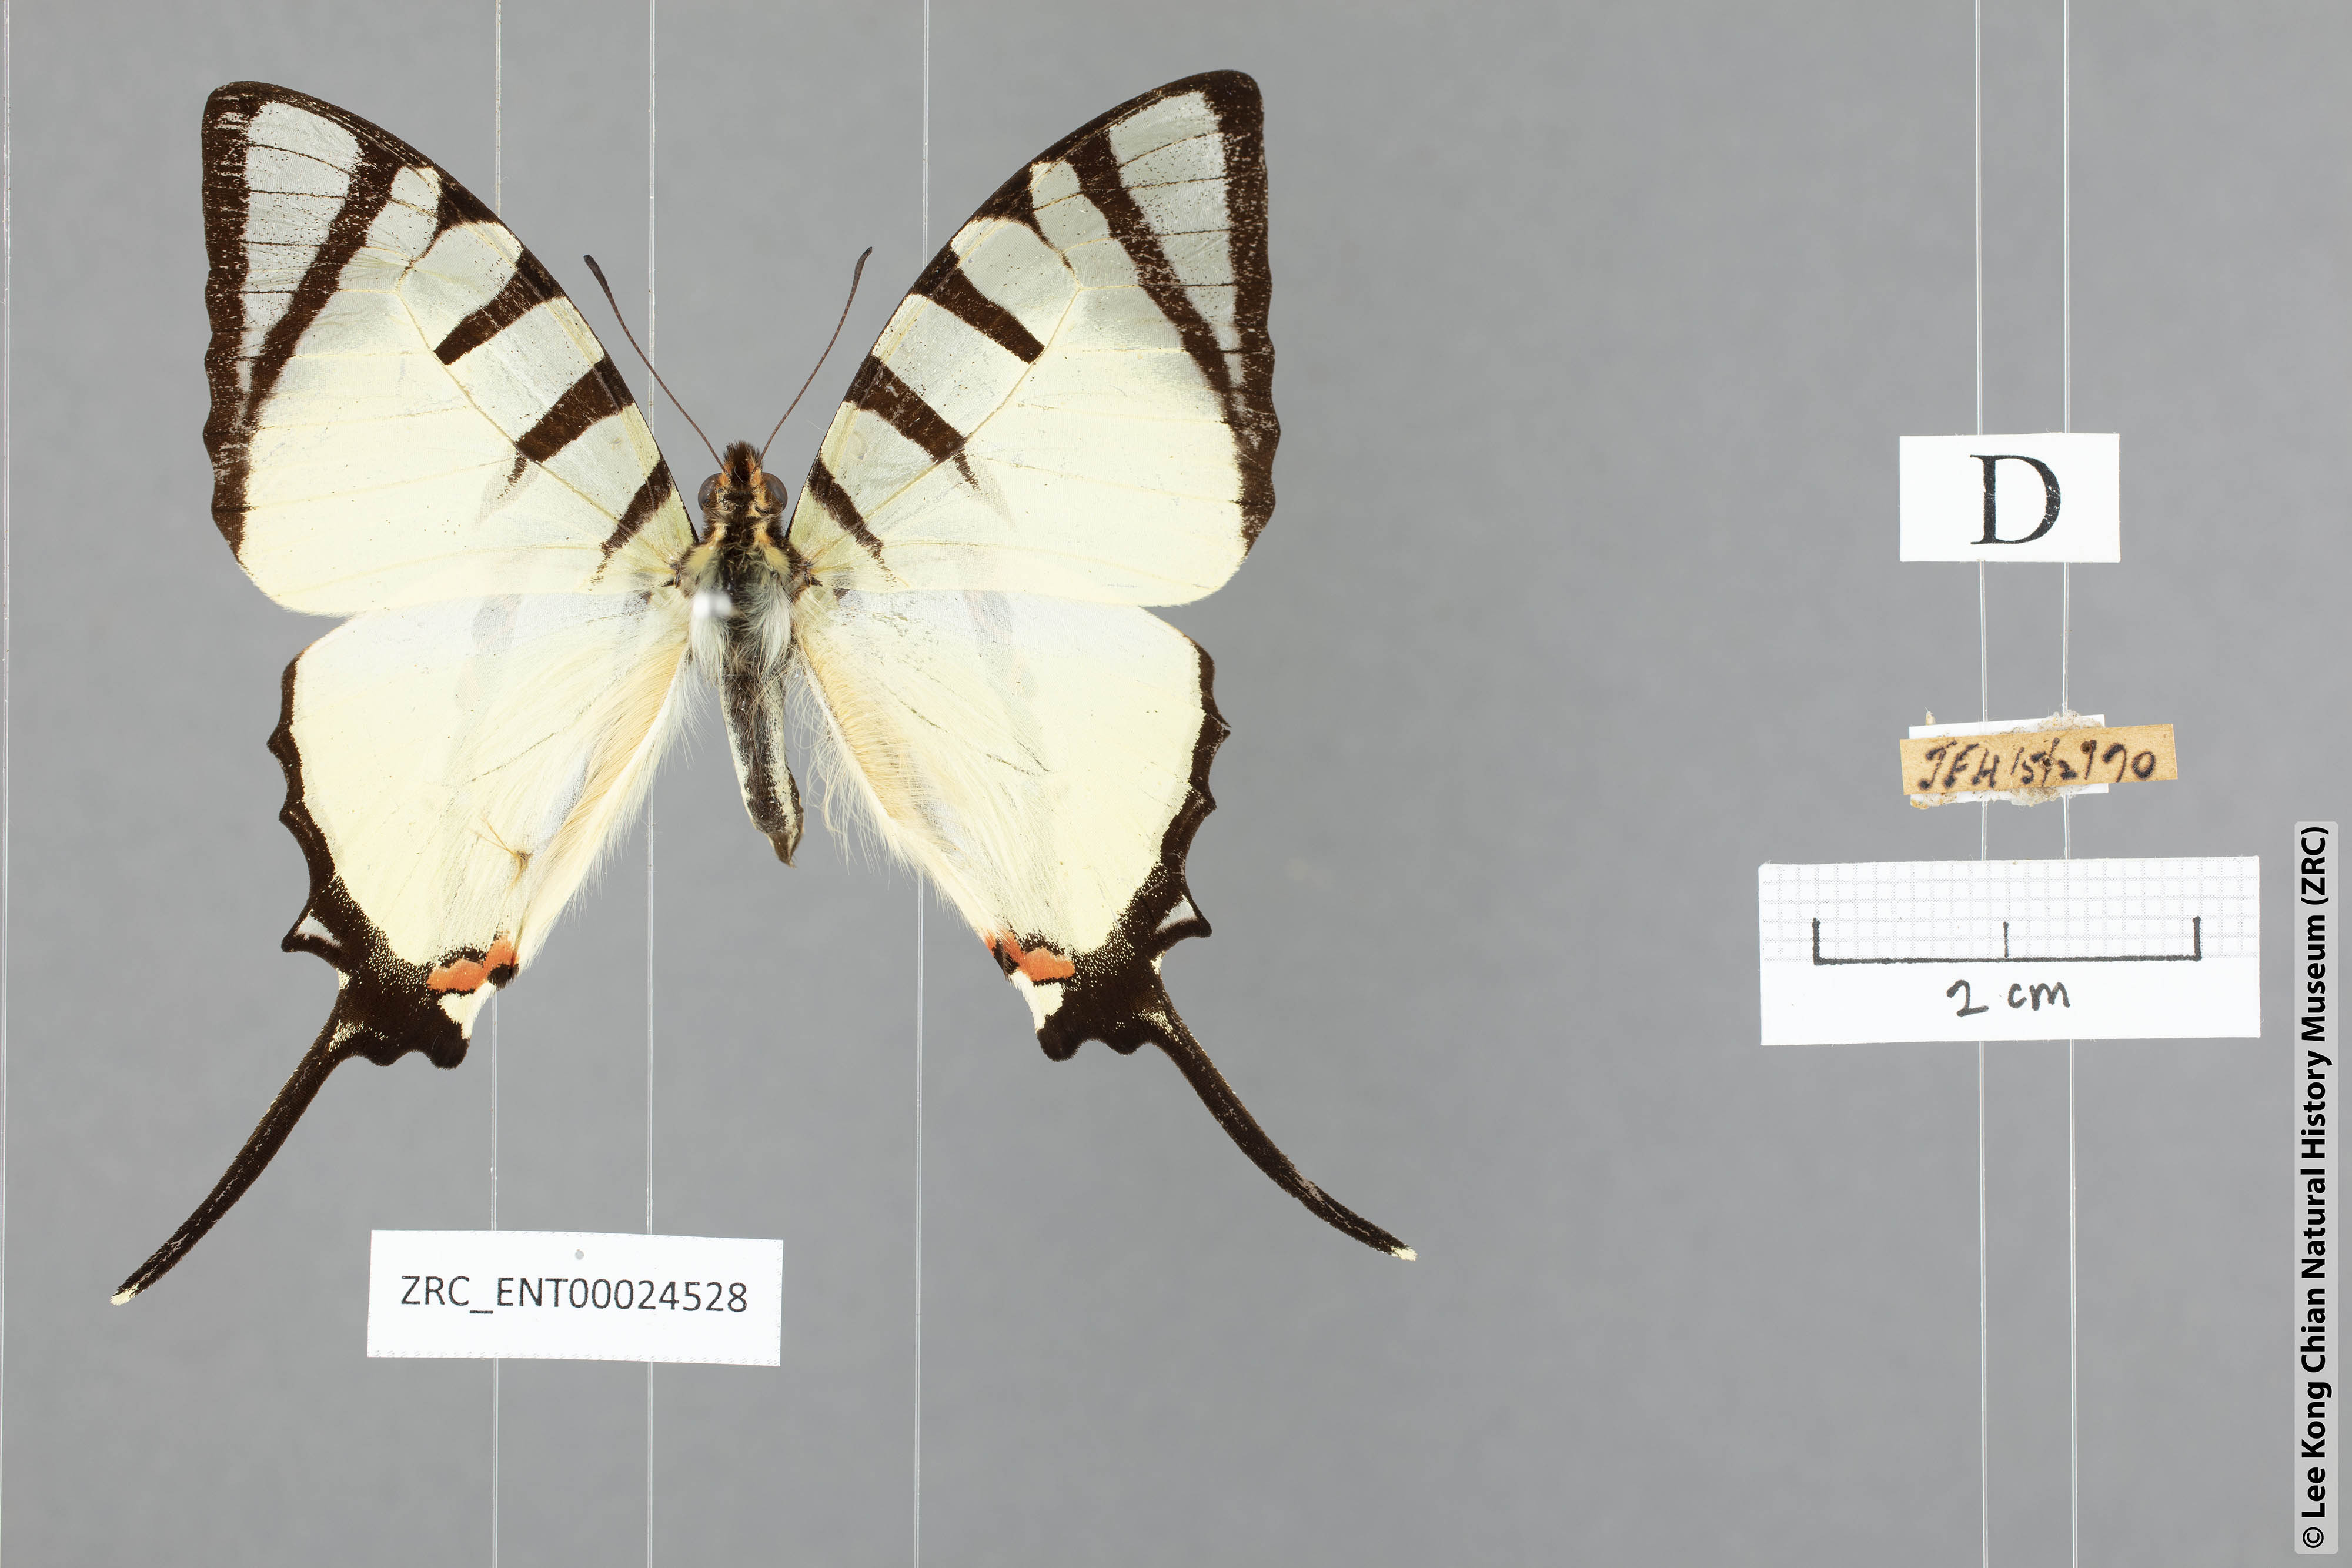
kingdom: Animalia
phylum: Arthropoda
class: Insecta
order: Lepidoptera
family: Papilionidae
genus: Graphium
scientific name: Graphium agetes
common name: Fourbar swordtail
